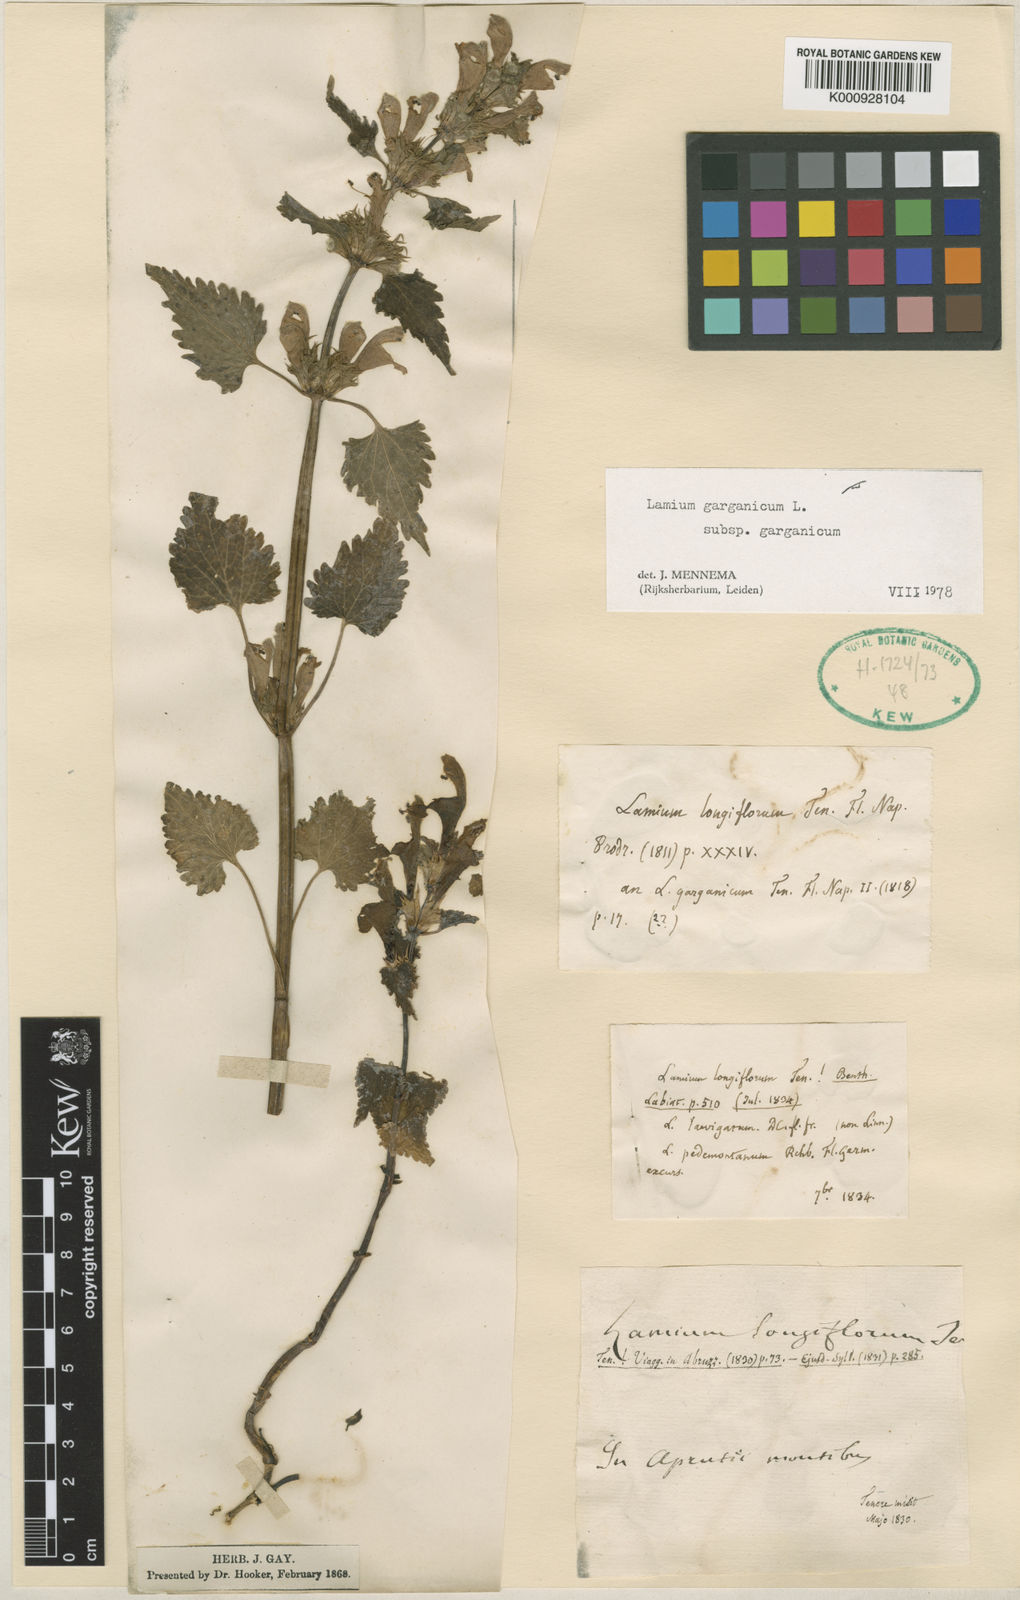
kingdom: Plantae
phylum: Tracheophyta
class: Magnoliopsida
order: Lamiales
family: Lamiaceae
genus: Lamium
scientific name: Lamium garganicum
